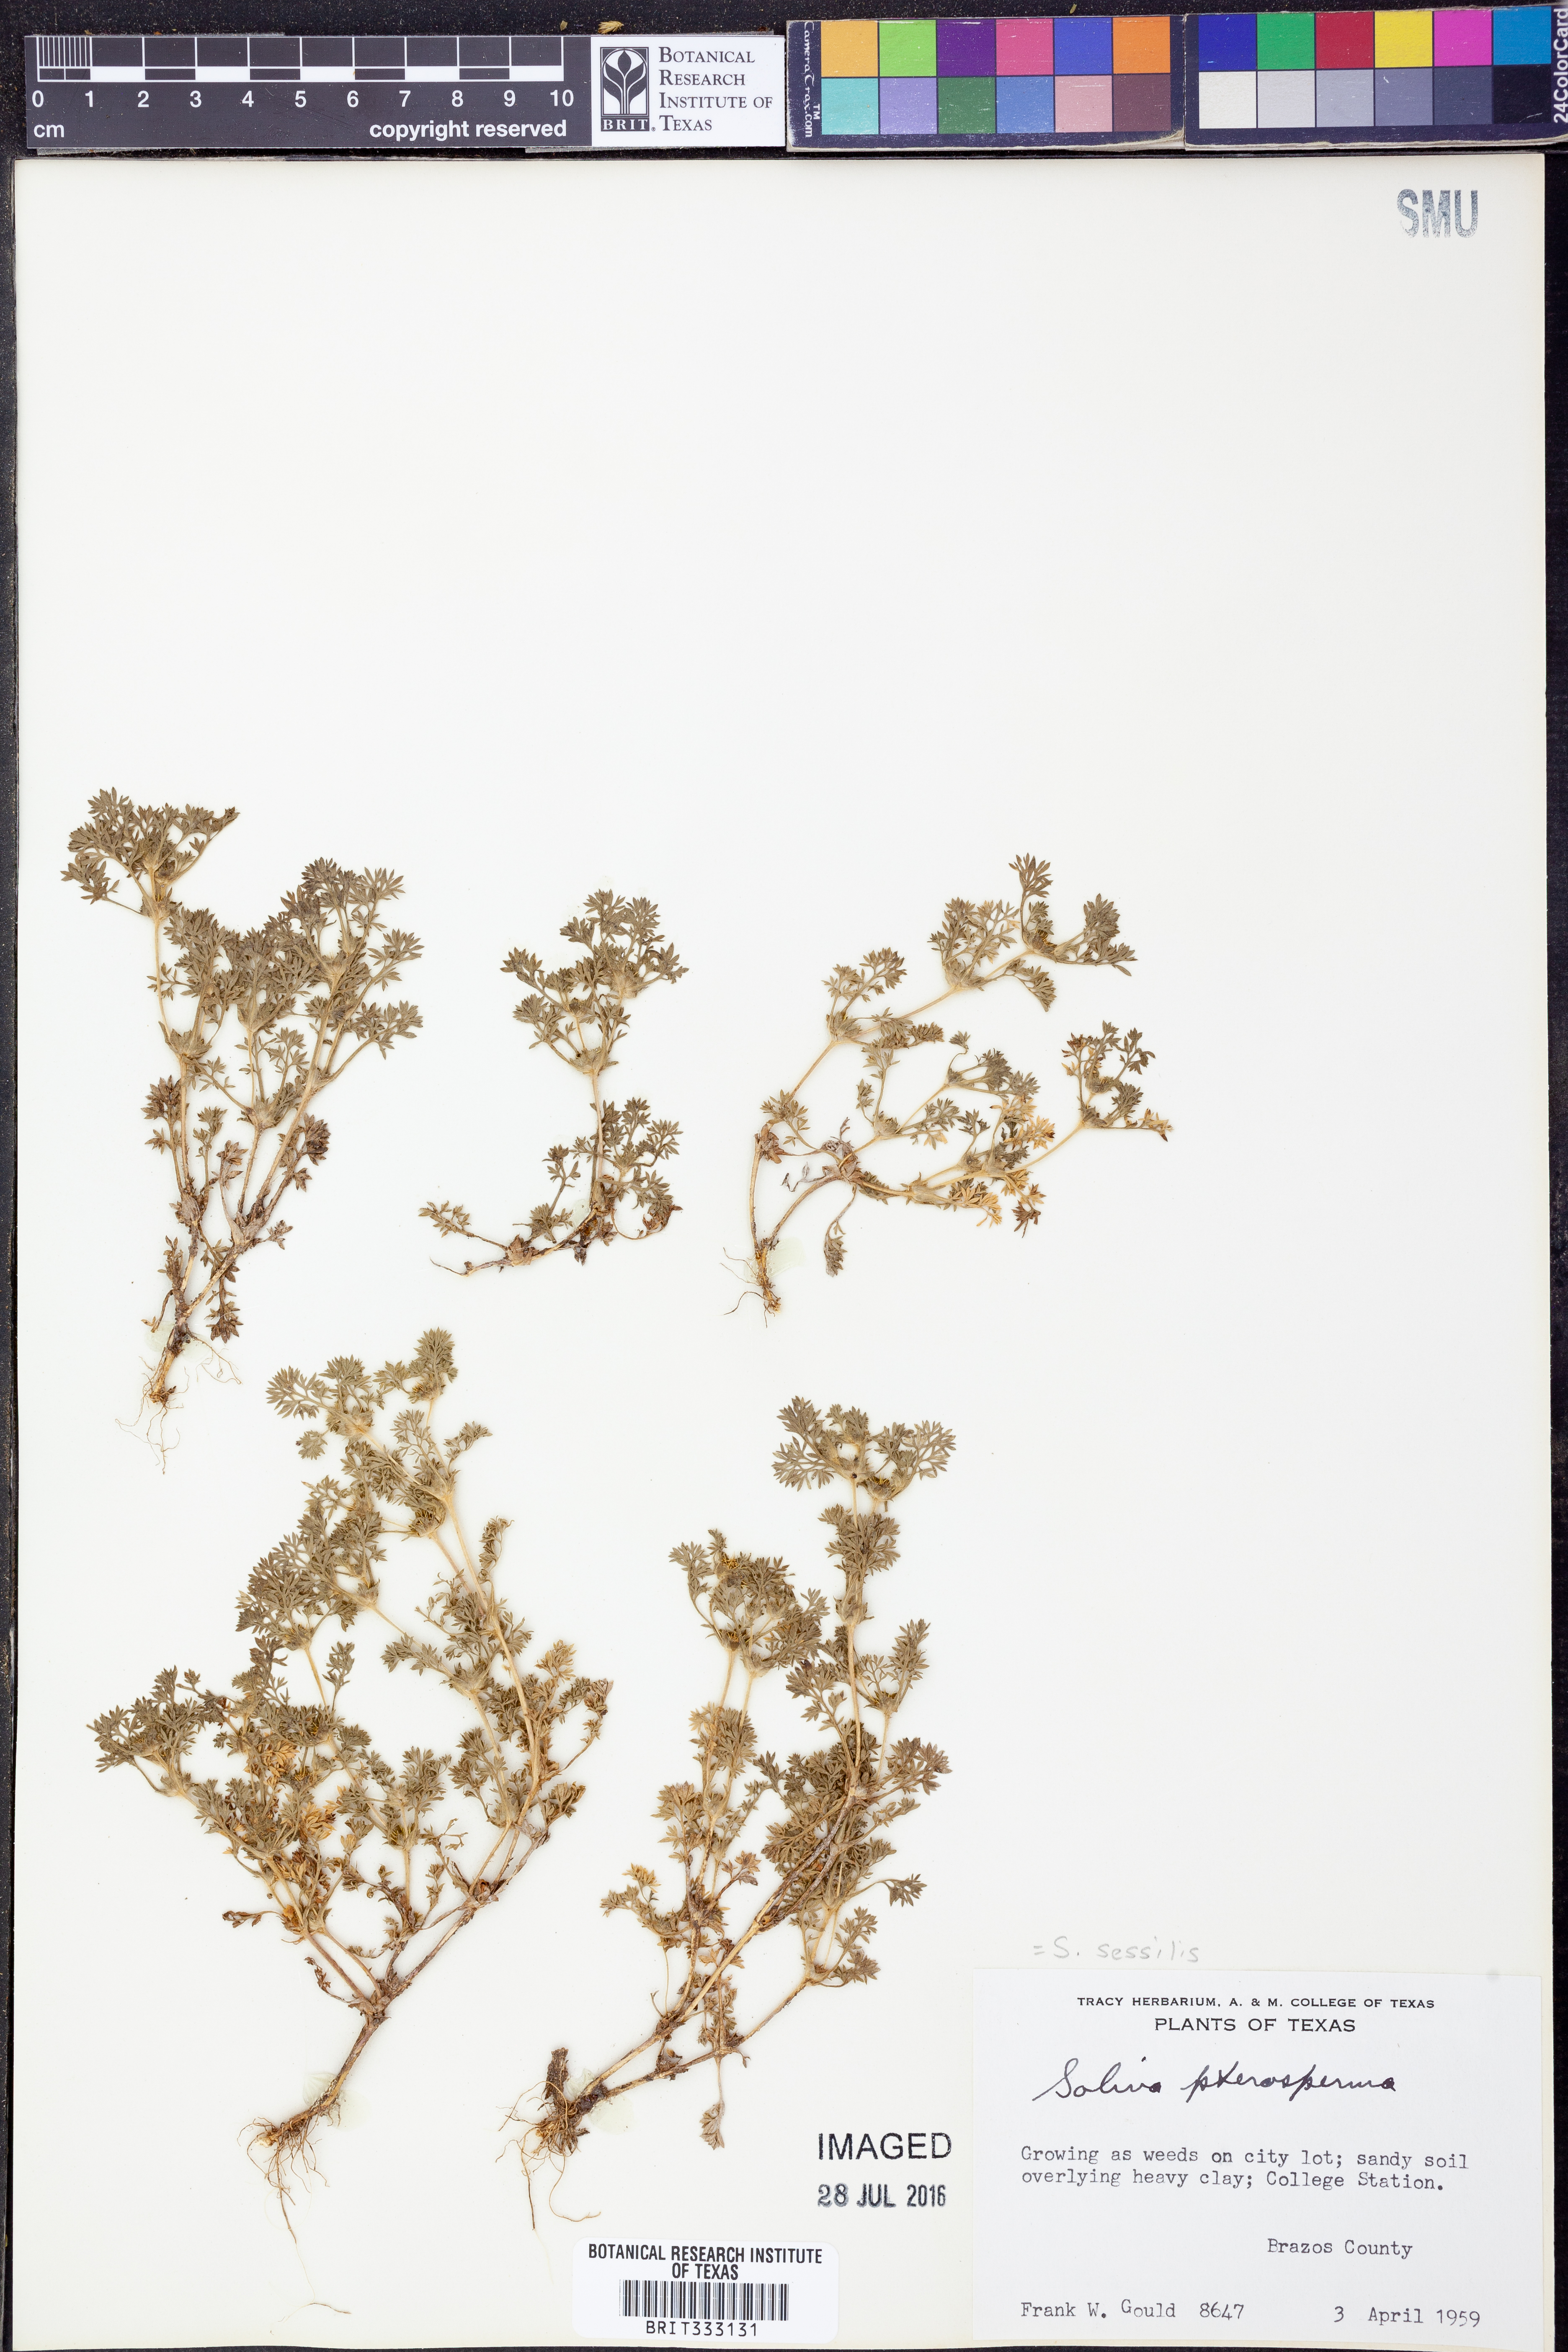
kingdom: Plantae
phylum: Tracheophyta
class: Magnoliopsida
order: Asterales
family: Asteraceae
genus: Soliva
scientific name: Soliva sessilis
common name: Field burrweed
